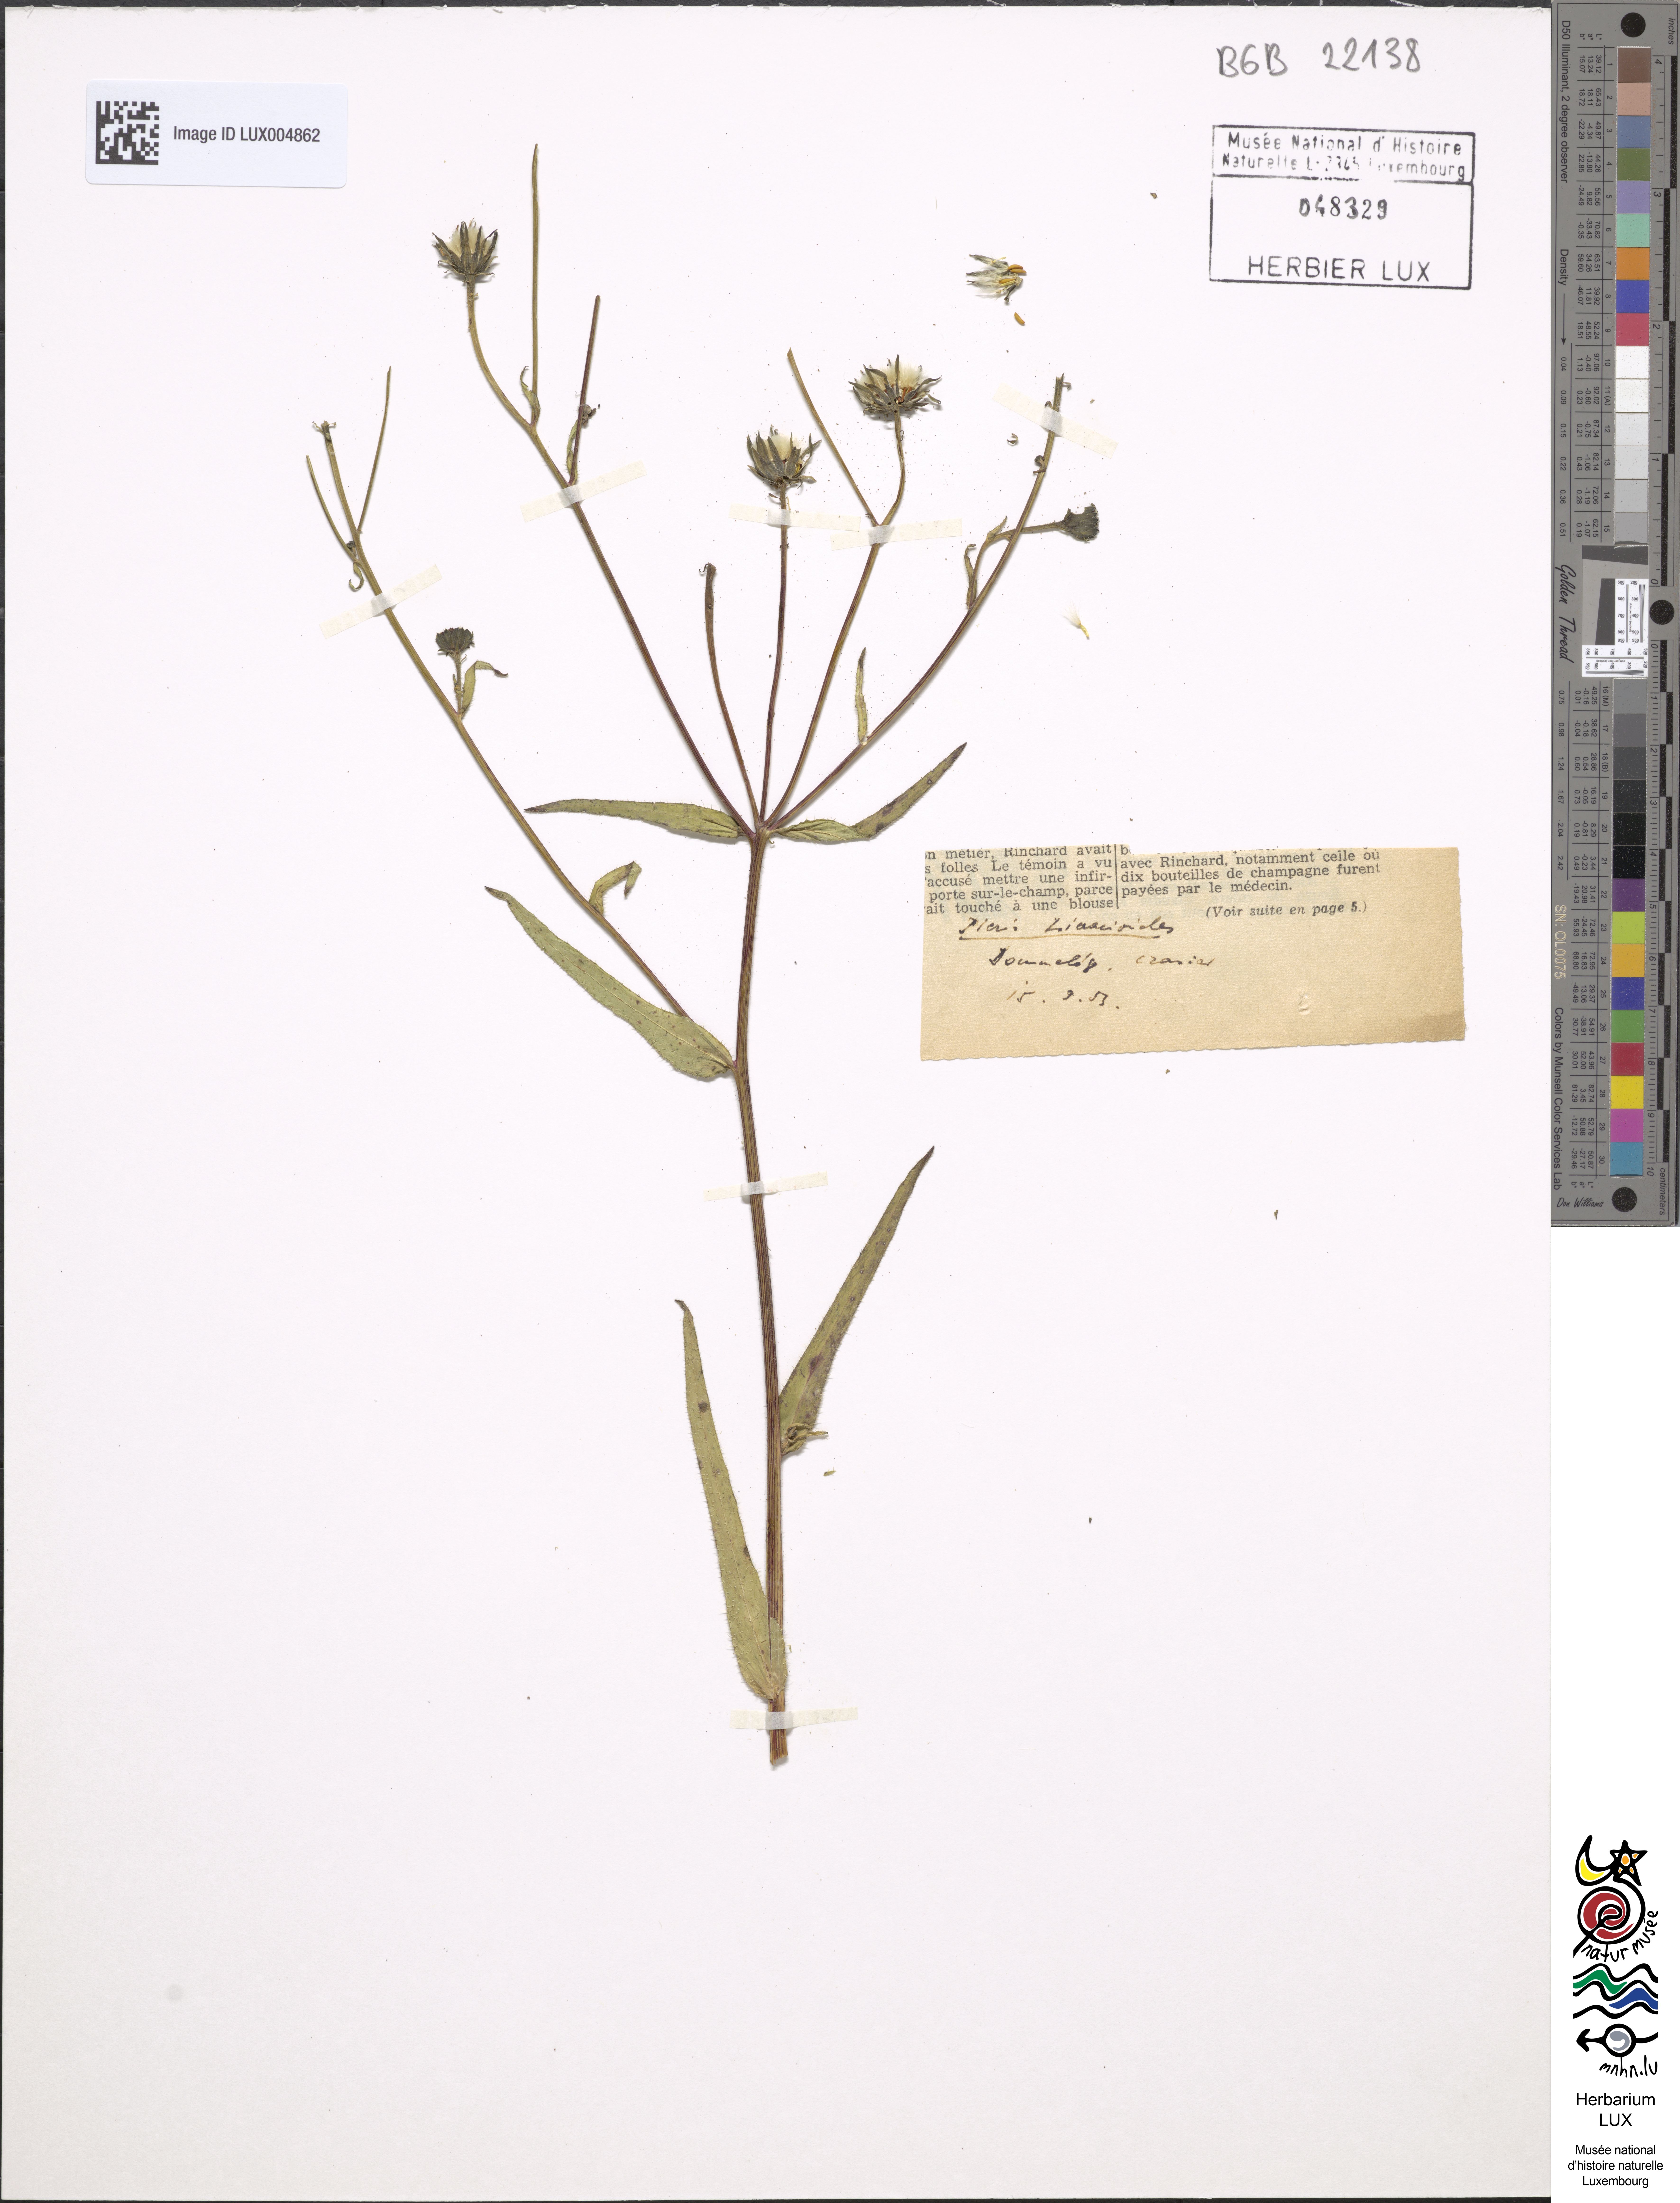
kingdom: Plantae
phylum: Tracheophyta
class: Magnoliopsida
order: Asterales
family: Asteraceae
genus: Picris
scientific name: Picris hieracioides
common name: Hawkweed oxtongue
